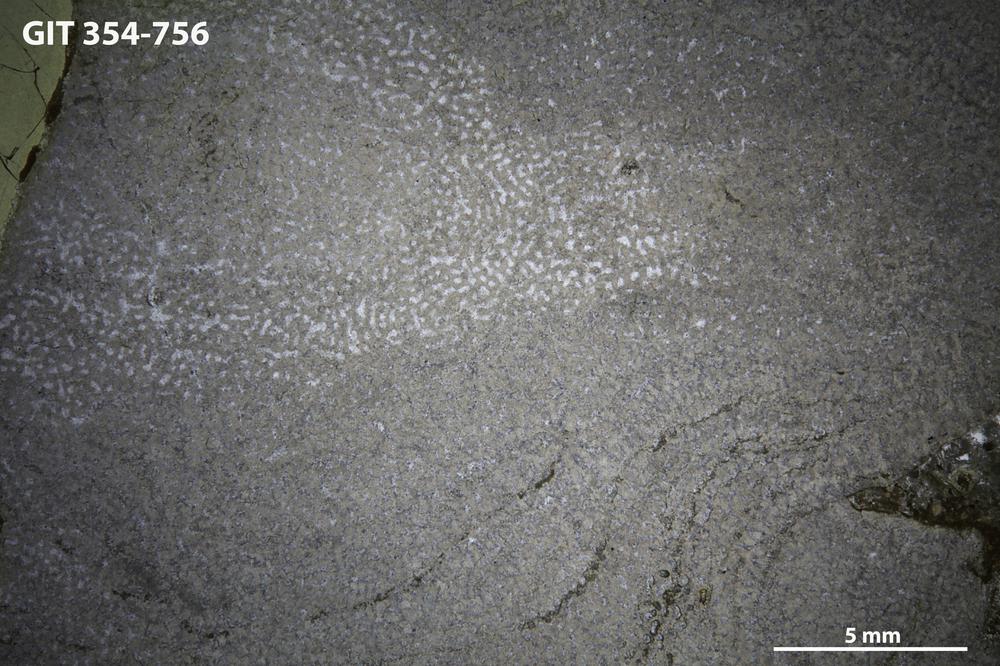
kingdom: Animalia
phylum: Porifera
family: Syringostromellidae
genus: Syringostromella
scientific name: Syringostromella
